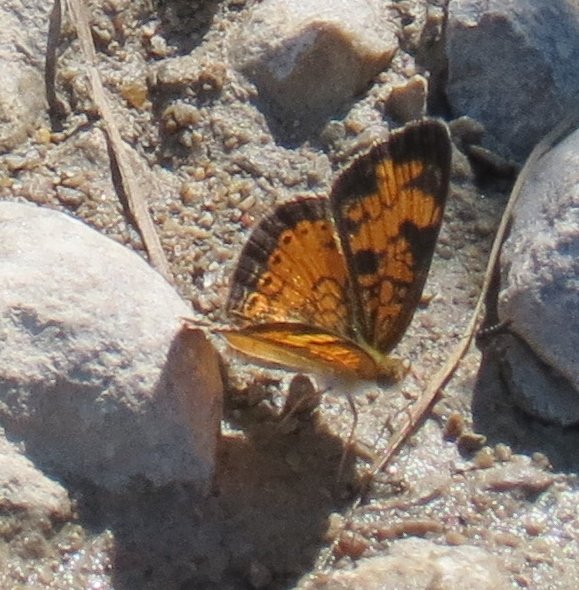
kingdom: Animalia
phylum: Arthropoda
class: Insecta
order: Lepidoptera
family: Nymphalidae
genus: Phyciodes
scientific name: Phyciodes tharos
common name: Northern Crescent
